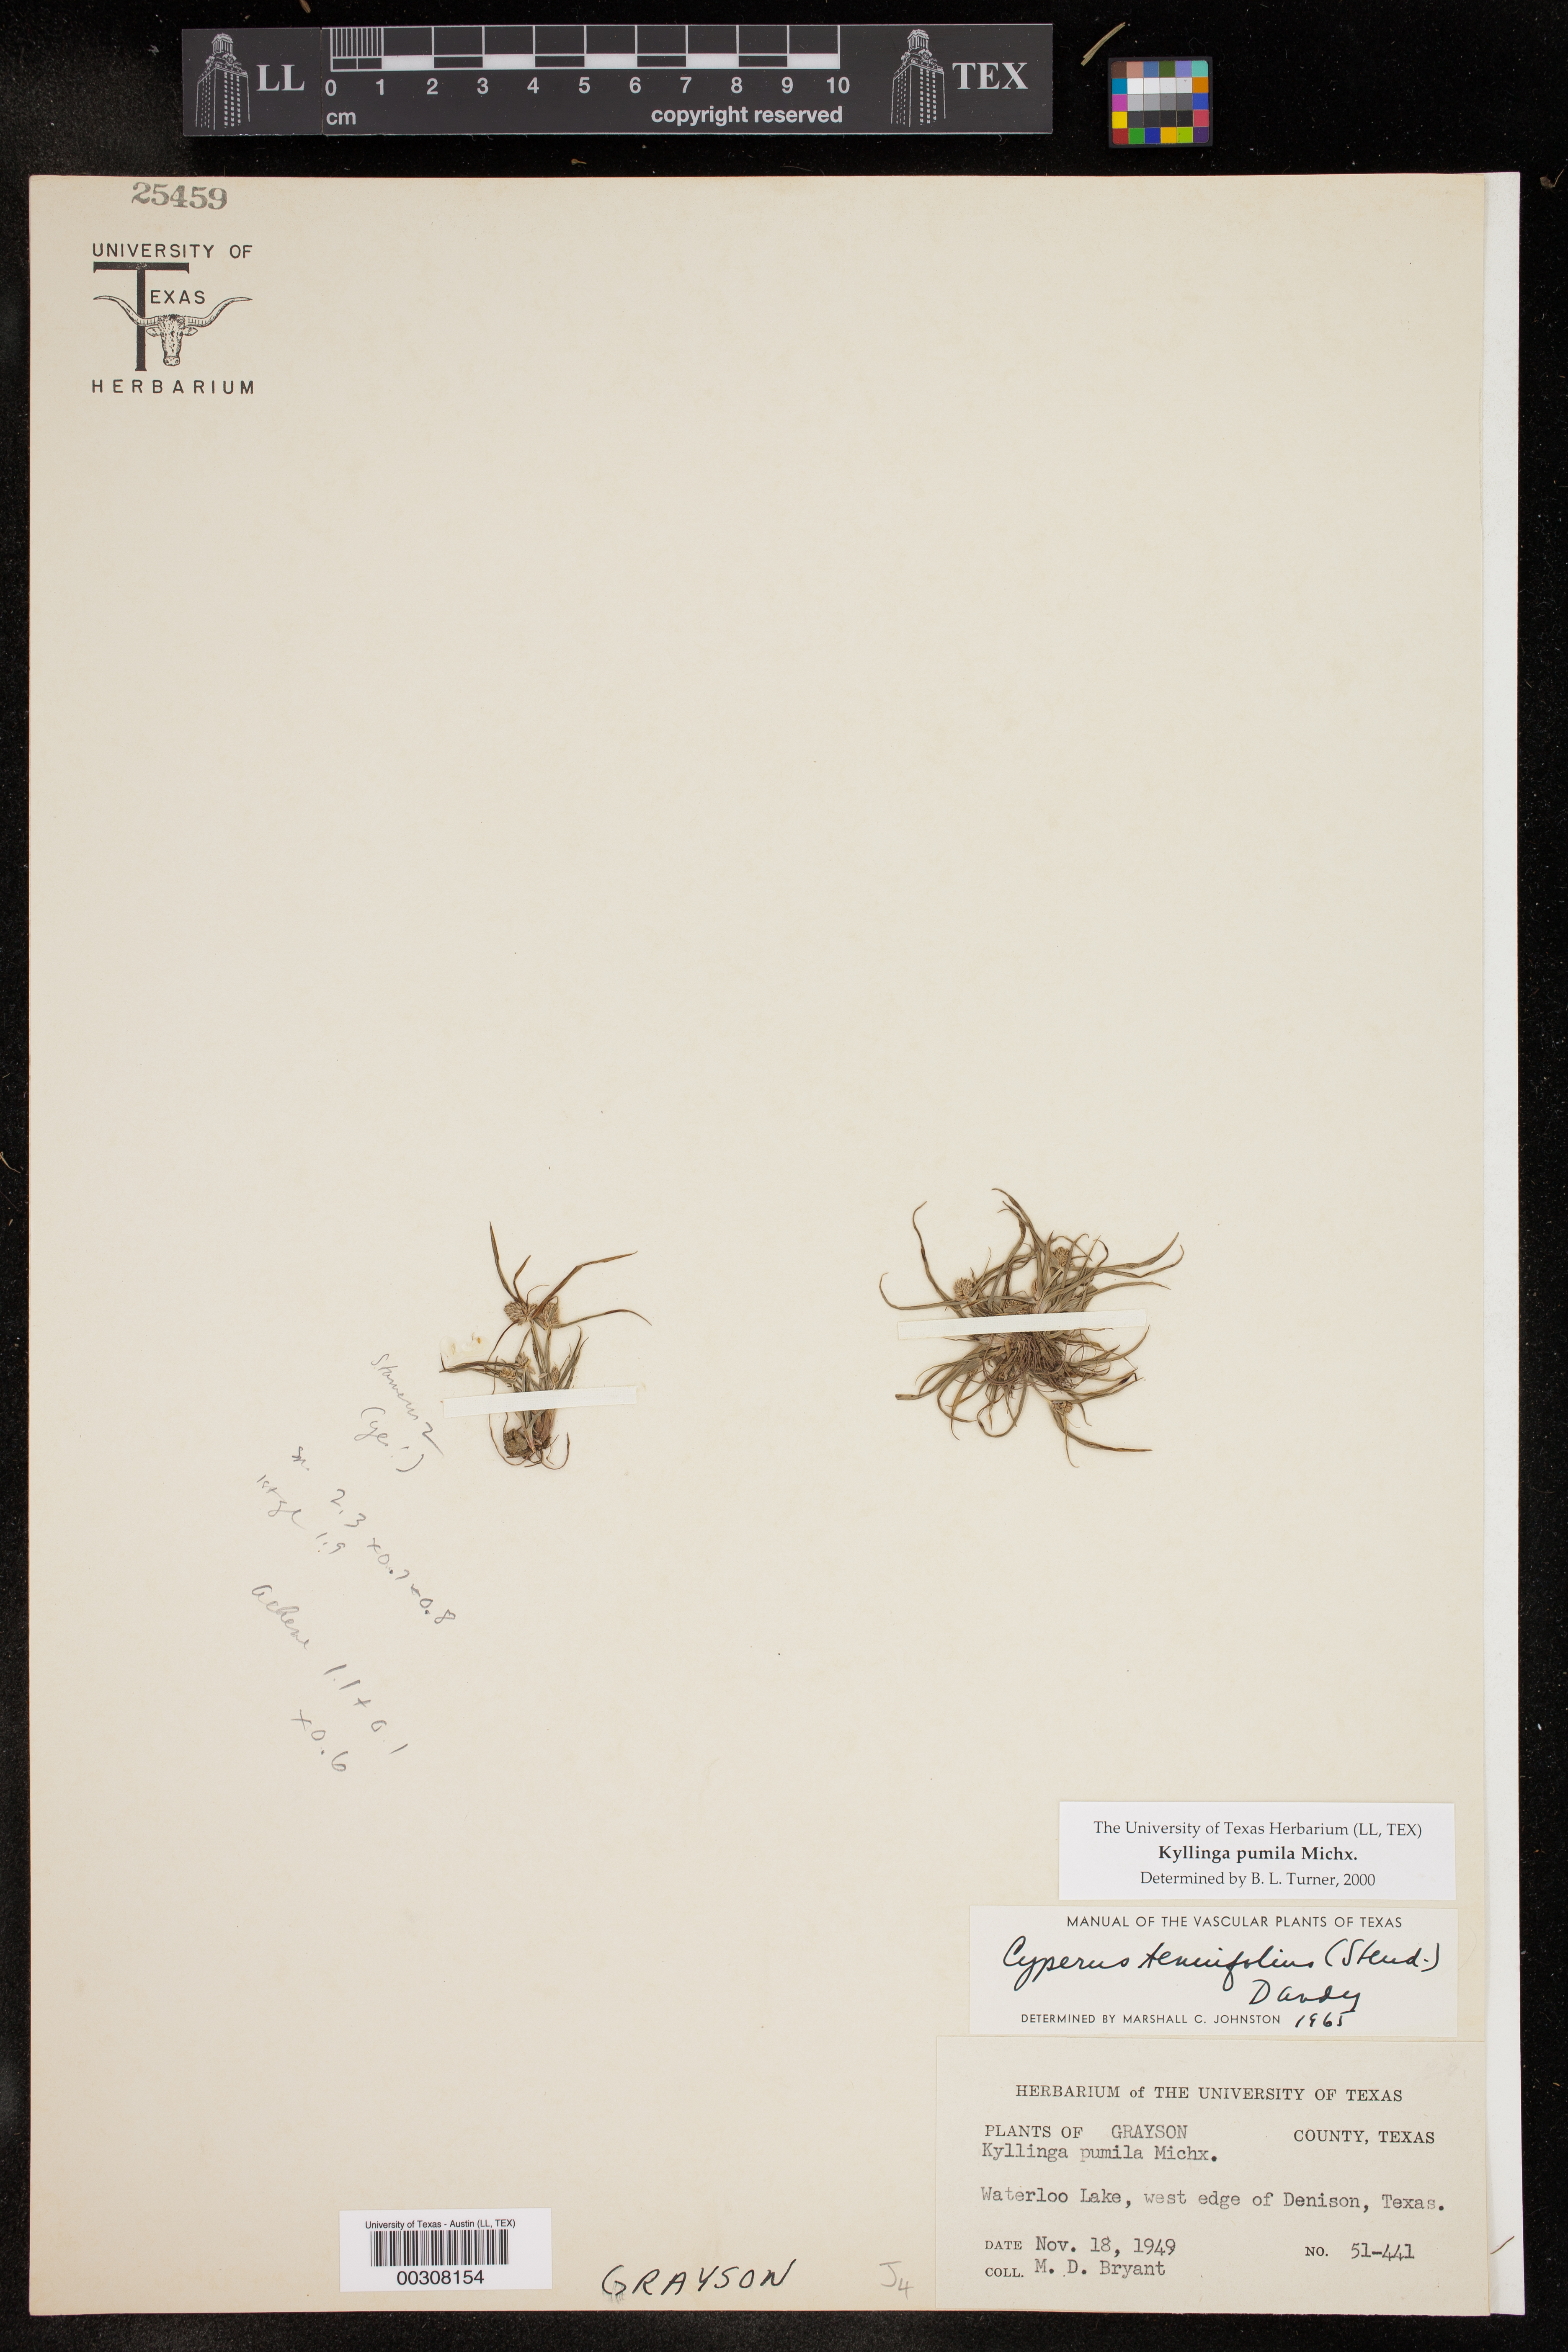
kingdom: Plantae
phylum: Tracheophyta
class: Liliopsida
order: Poales
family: Cyperaceae
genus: Cyperus
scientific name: Cyperus
